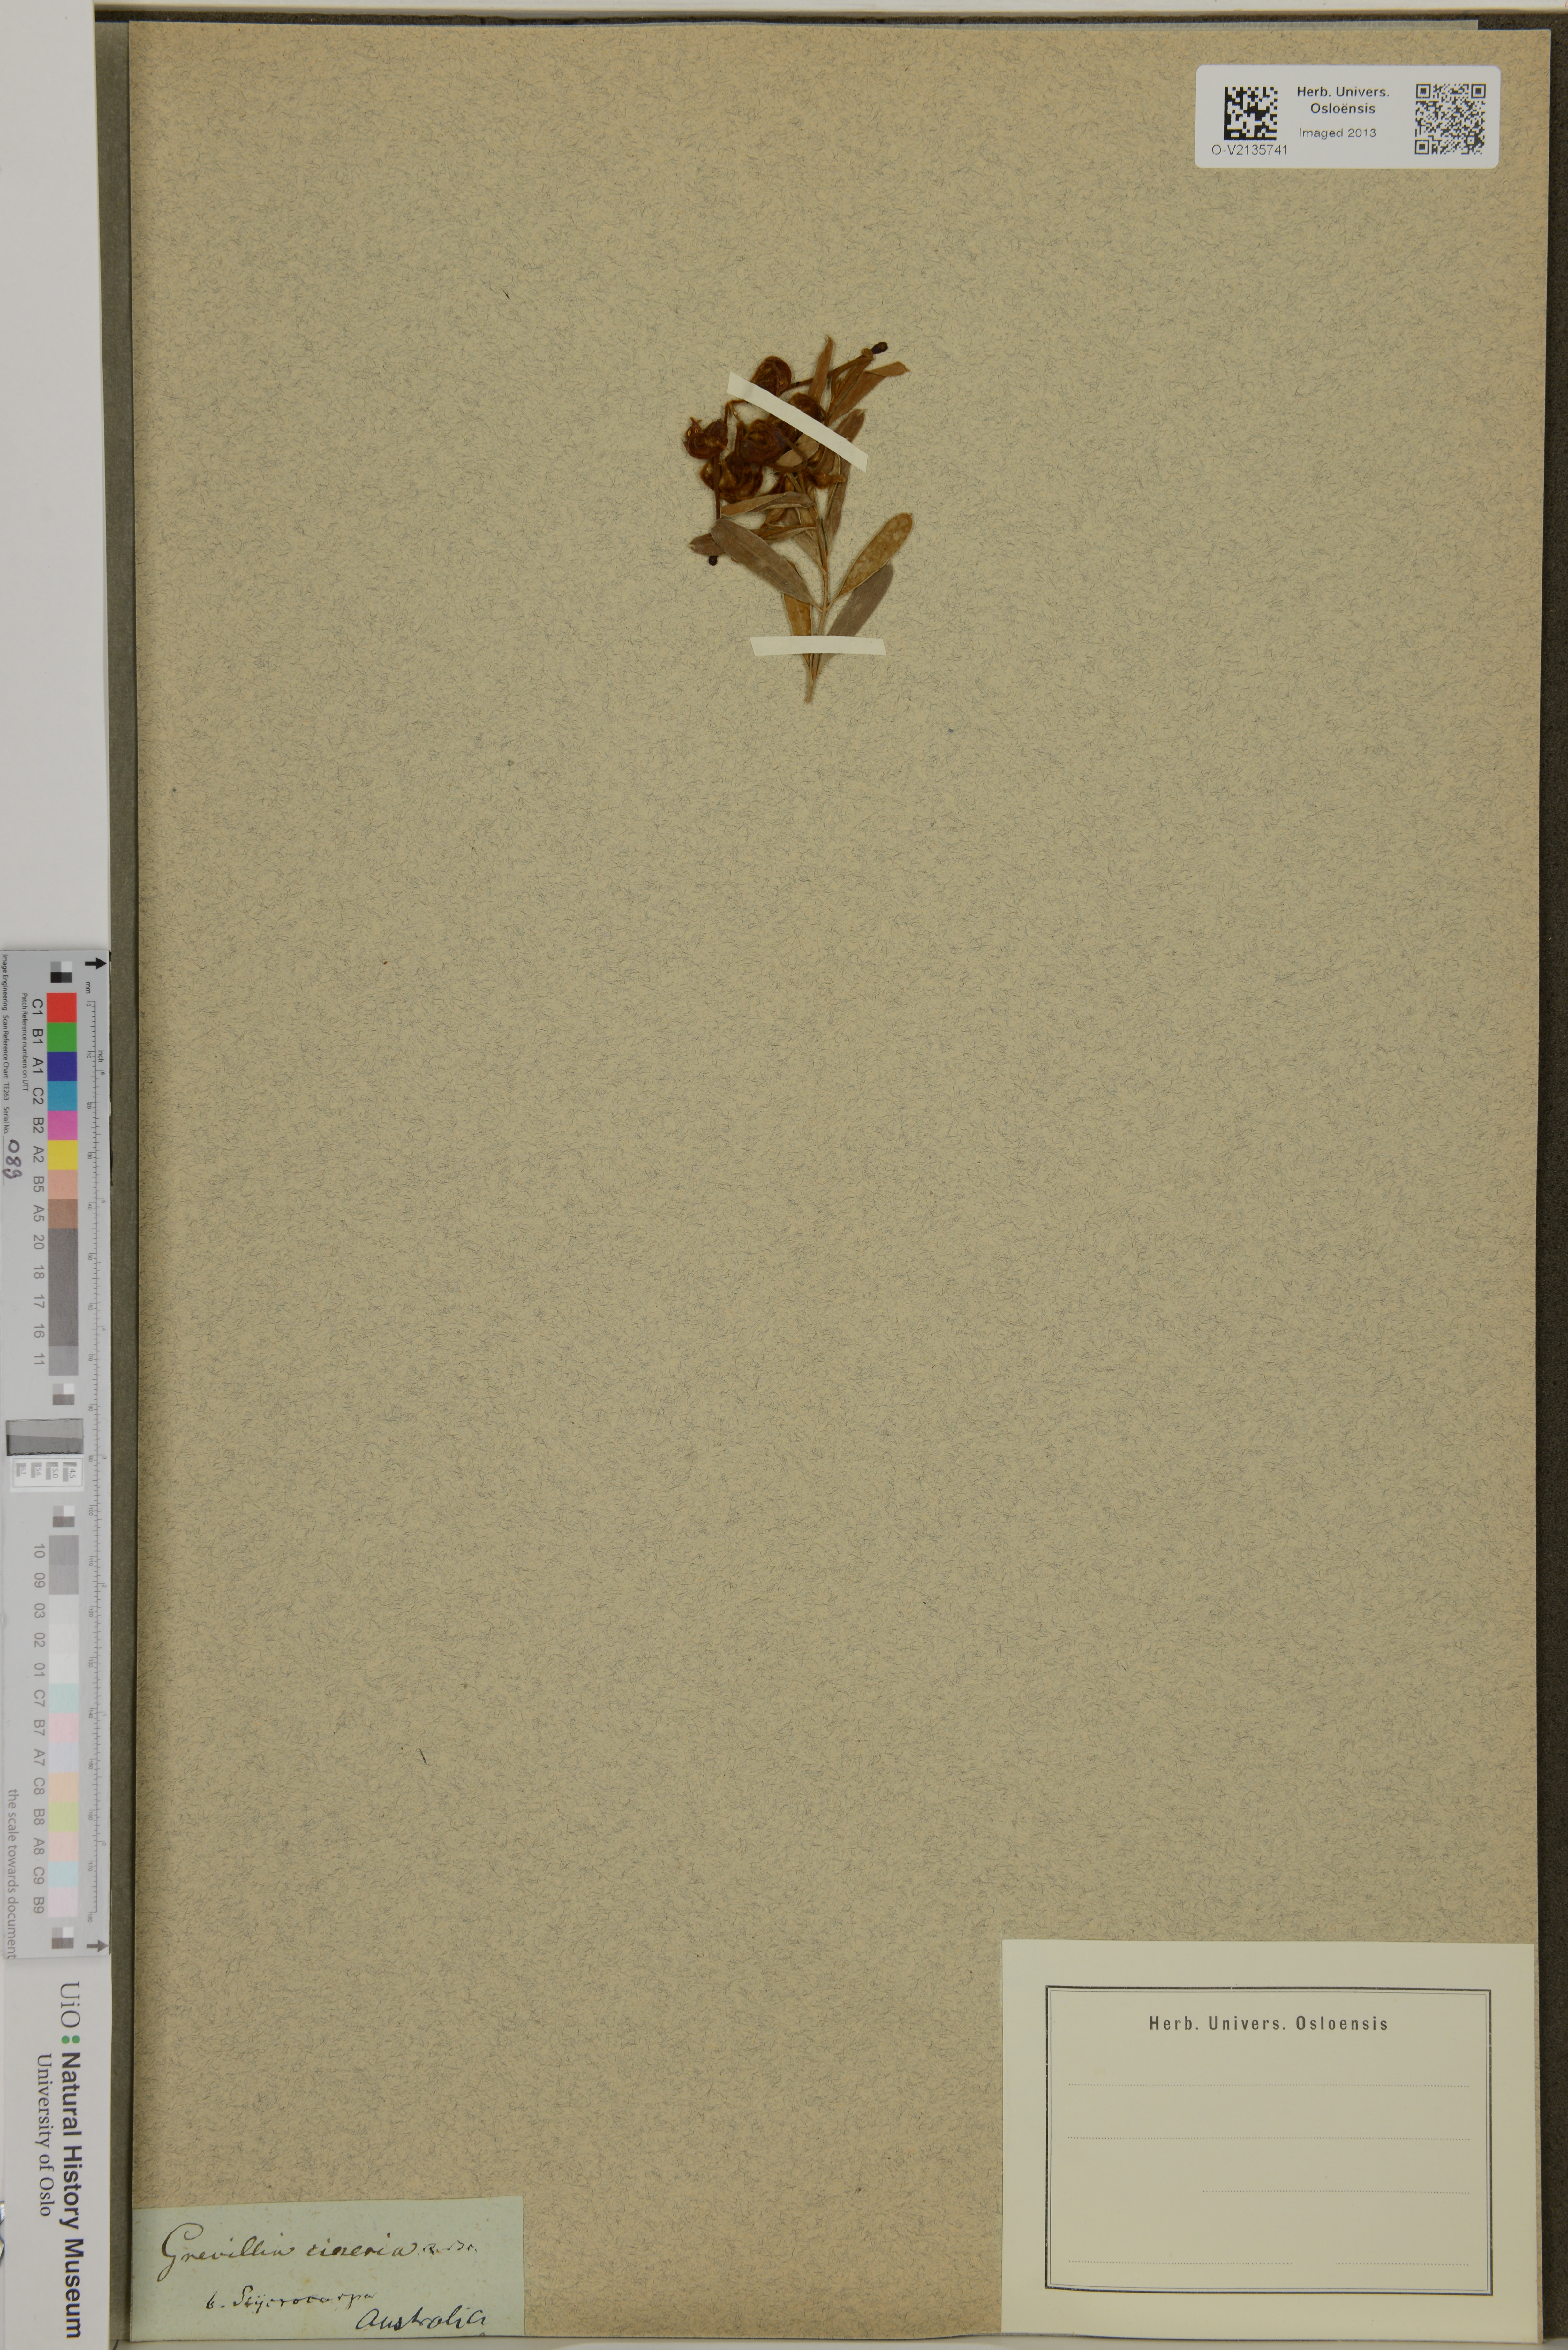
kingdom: Plantae
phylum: Tracheophyta
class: Magnoliopsida
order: Proteales
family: Proteaceae
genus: Grevillea
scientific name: Grevillea cinerea
